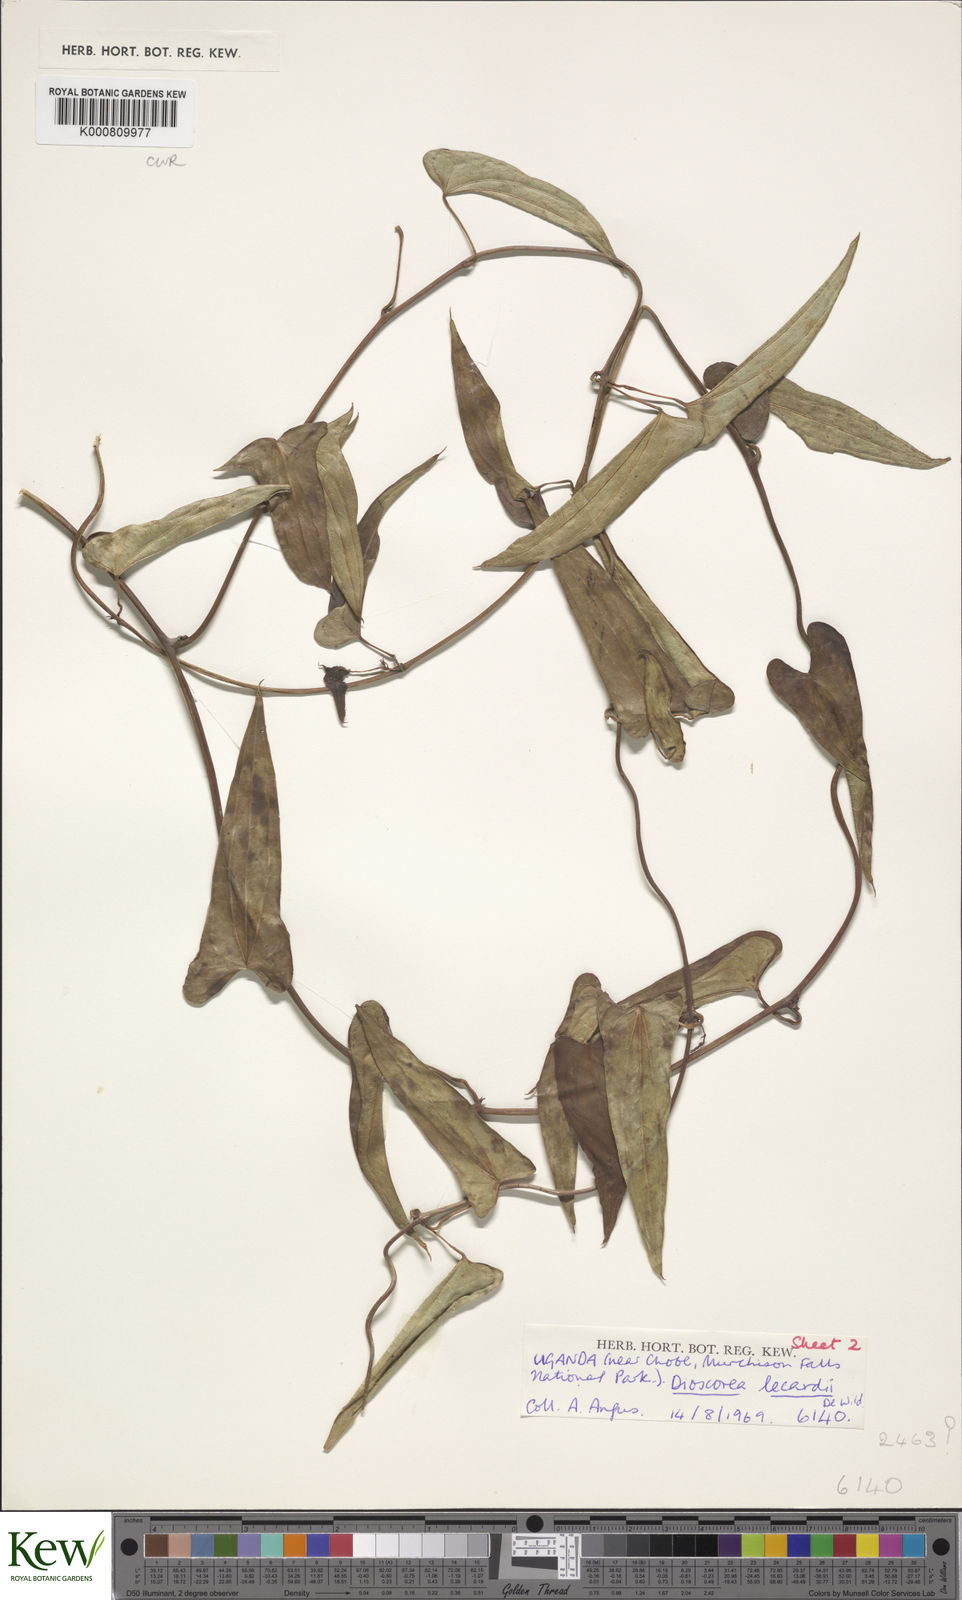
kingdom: Plantae
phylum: Tracheophyta
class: Liliopsida
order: Dioscoreales
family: Dioscoreaceae
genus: Dioscorea
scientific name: Dioscorea sagittifolia
